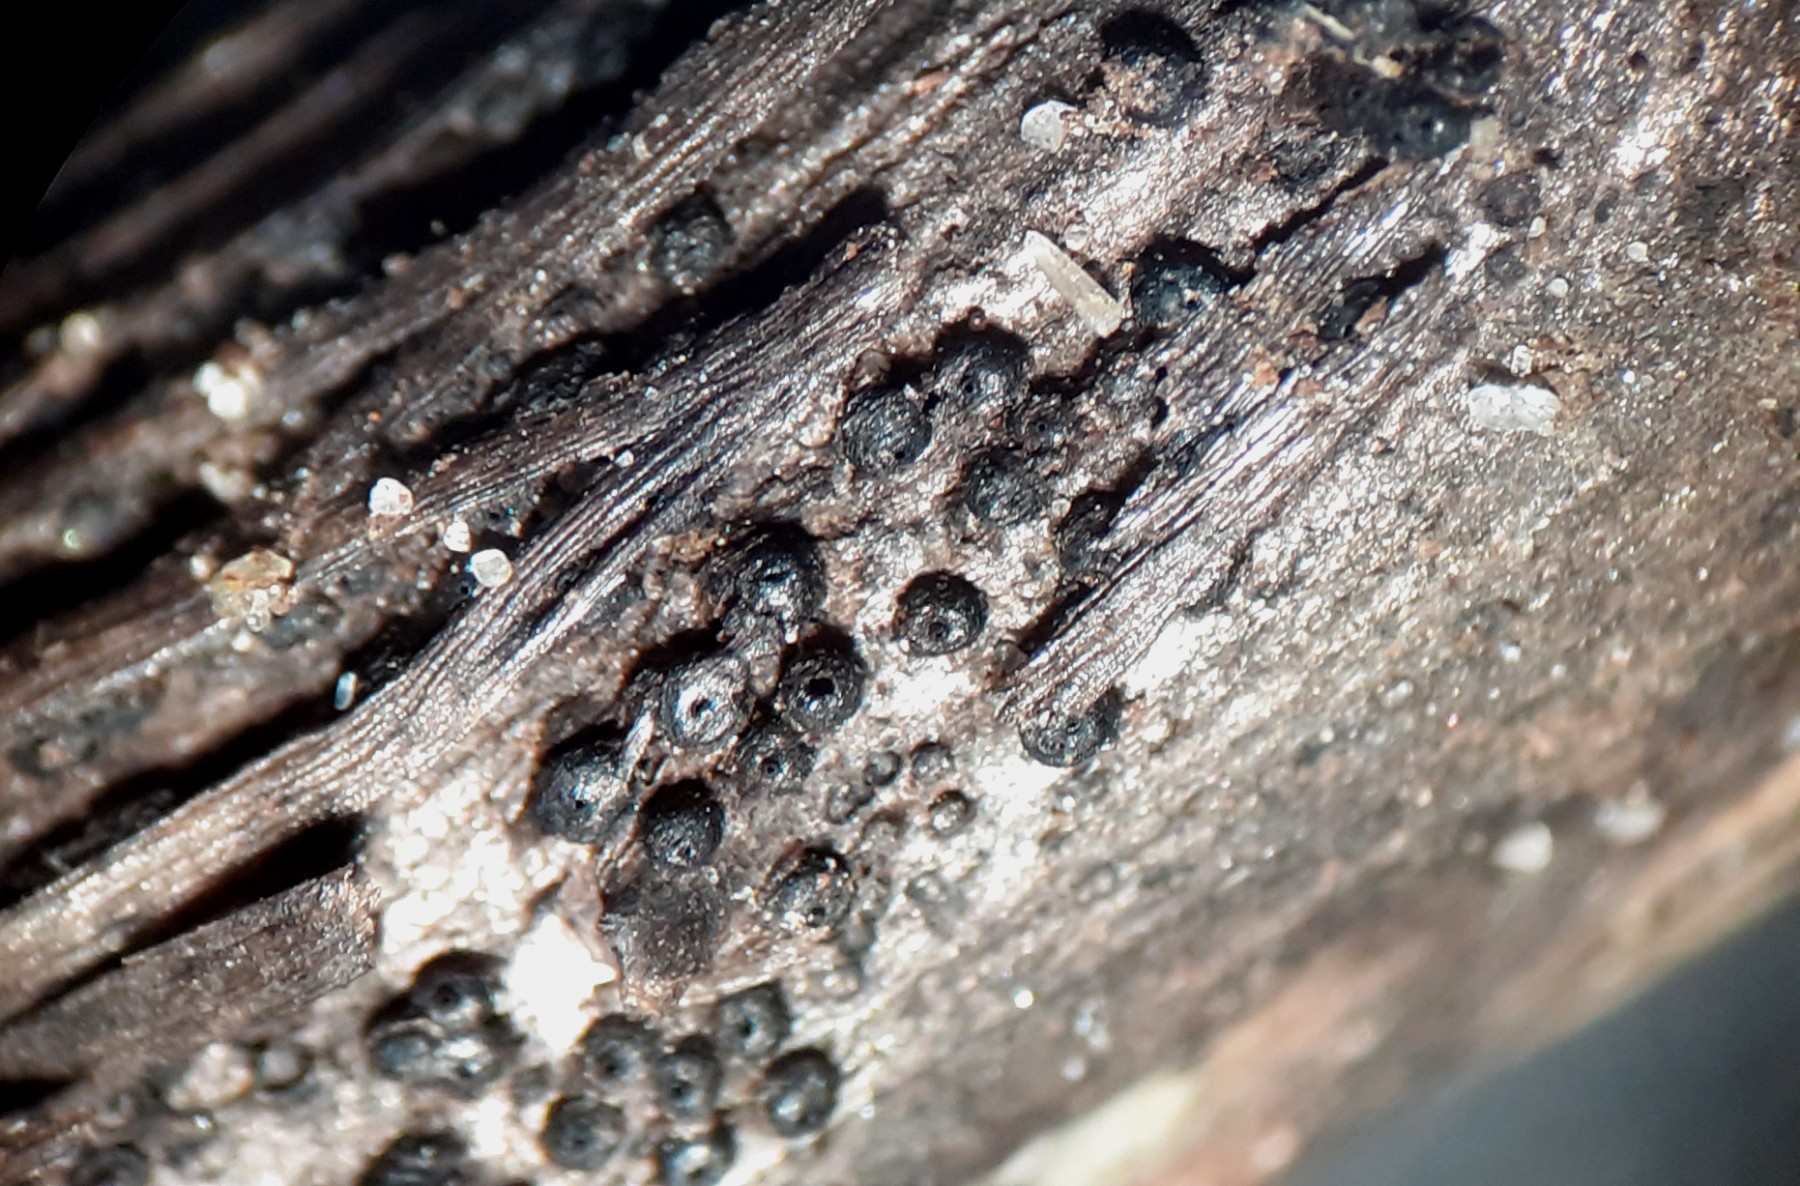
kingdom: Fungi
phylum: Ascomycota
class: Dothideomycetes
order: Pleosporales
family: Phaeosphaeriaceae
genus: Phaeosphaeria
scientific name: Phaeosphaeria sowerbyi
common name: kål-kulkegle
